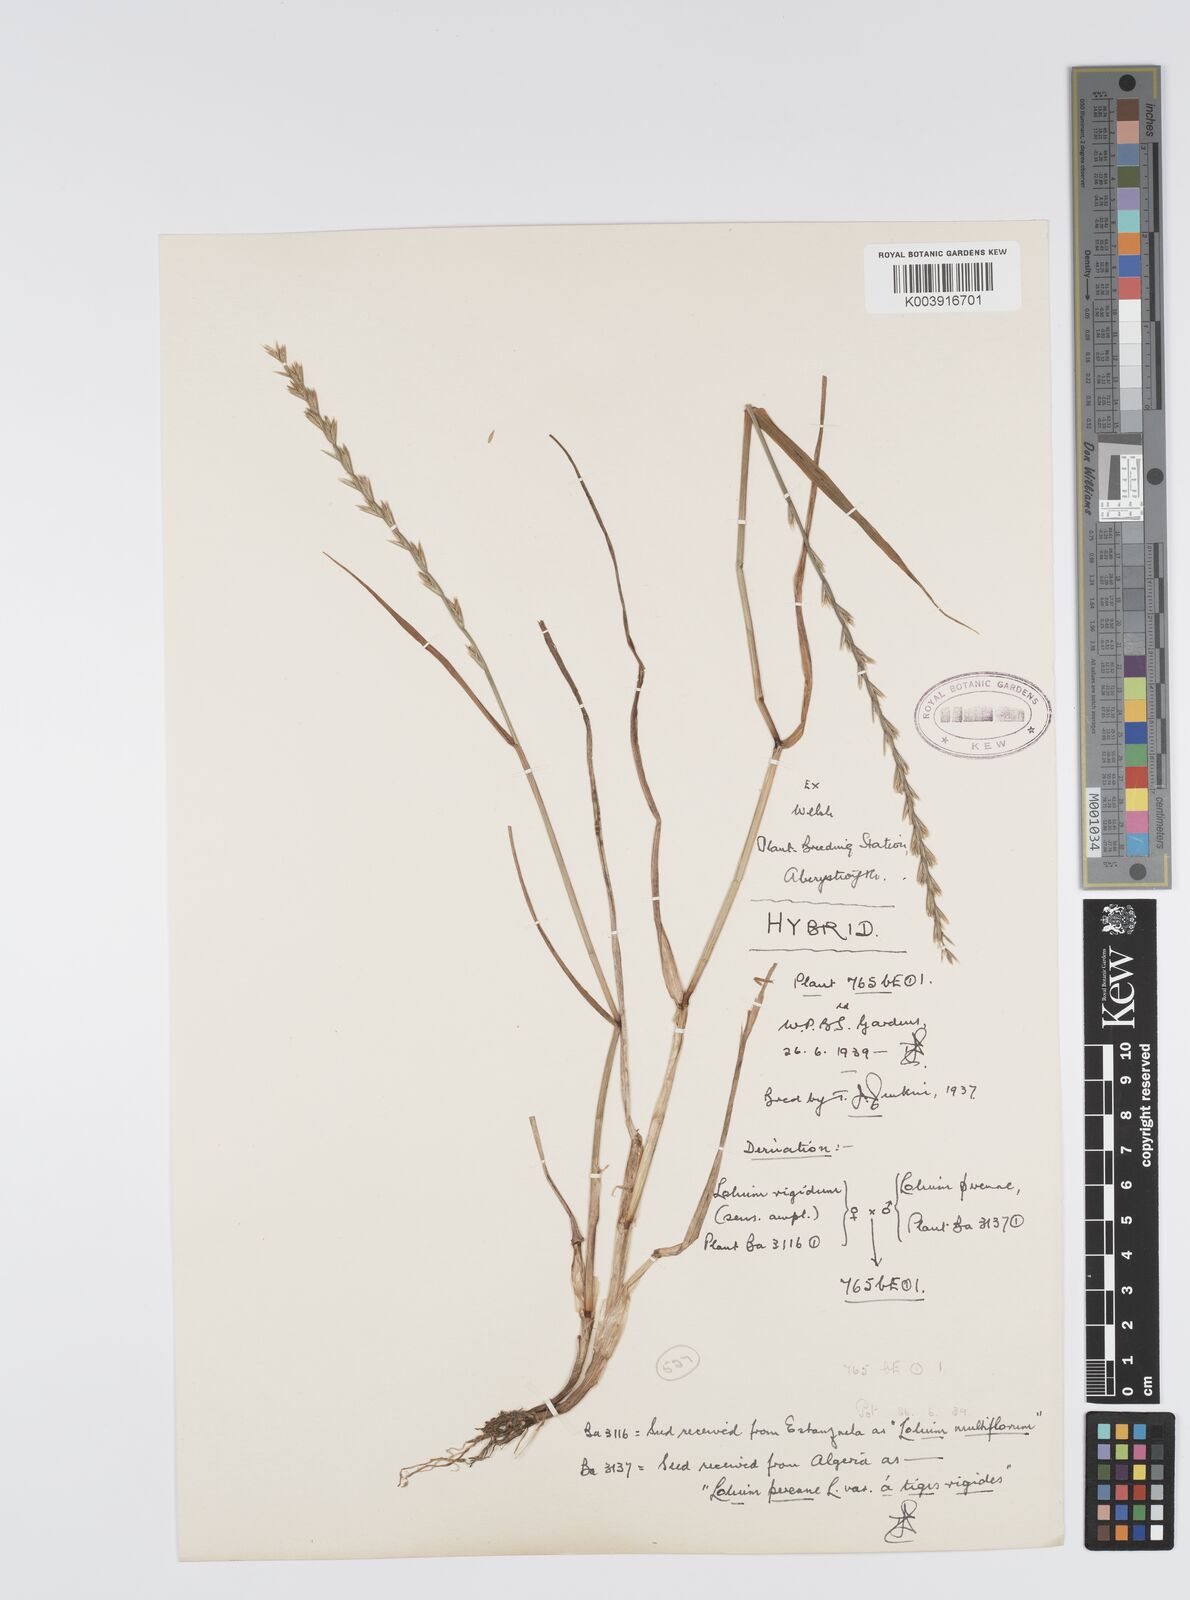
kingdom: Plantae
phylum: Tracheophyta
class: Liliopsida
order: Poales
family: Poaceae
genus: Lolium
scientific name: Lolium perenne
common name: Perennial ryegrass
